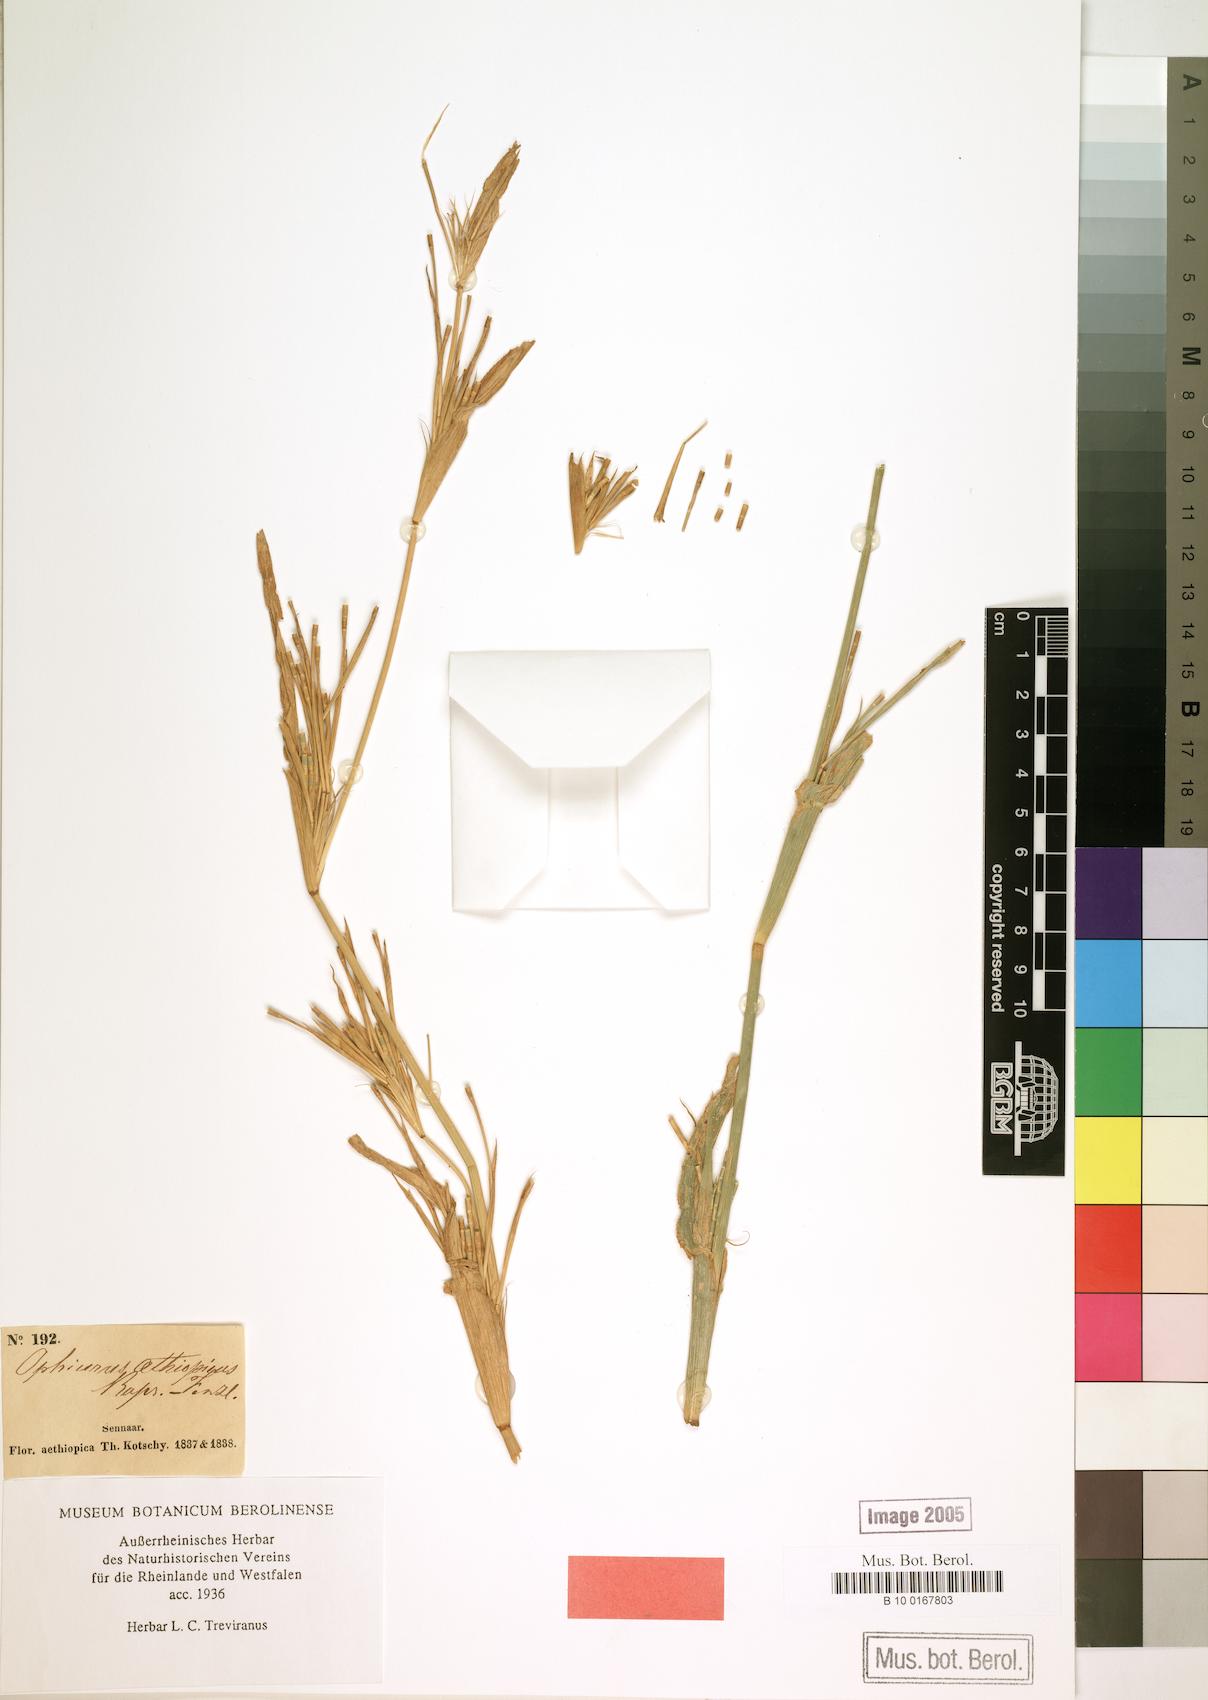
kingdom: Plantae
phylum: Tracheophyta
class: Liliopsida
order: Poales
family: Poaceae
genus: Ophiurus
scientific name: Ophiurus
